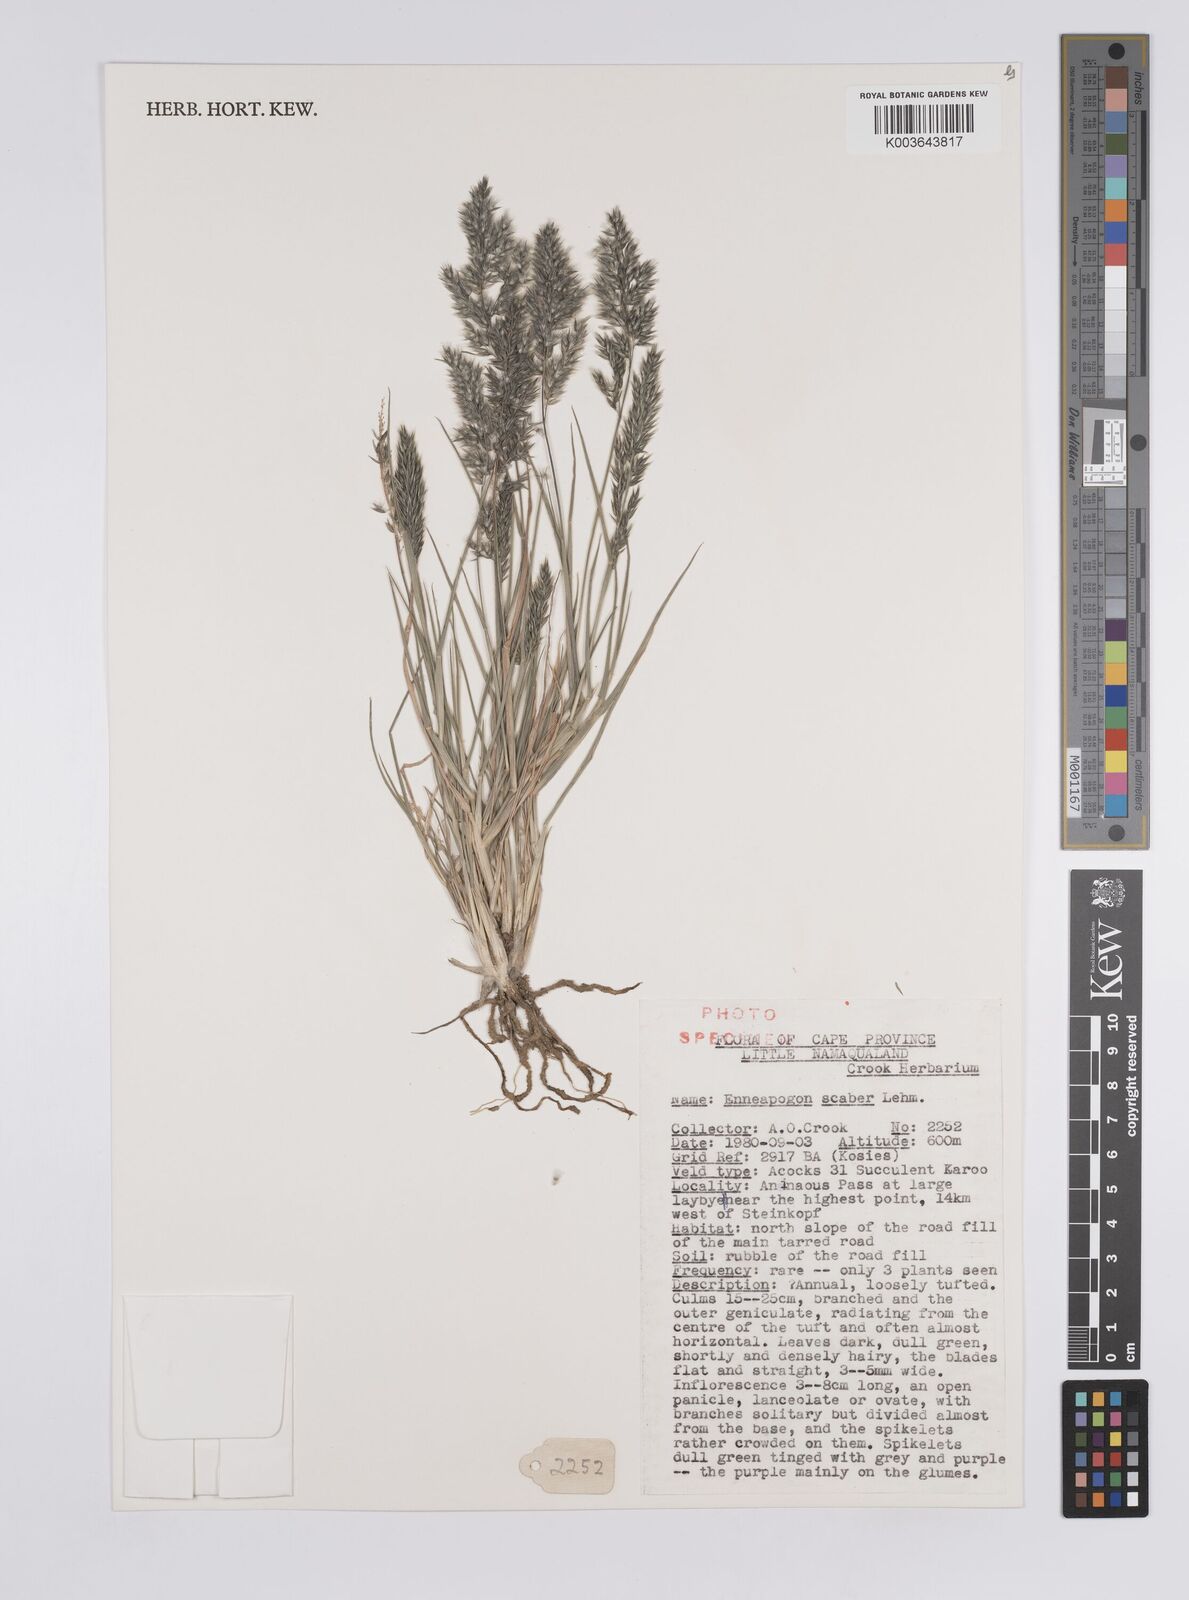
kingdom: Plantae
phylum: Tracheophyta
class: Liliopsida
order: Poales
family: Poaceae
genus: Enneapogon
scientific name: Enneapogon scaber
